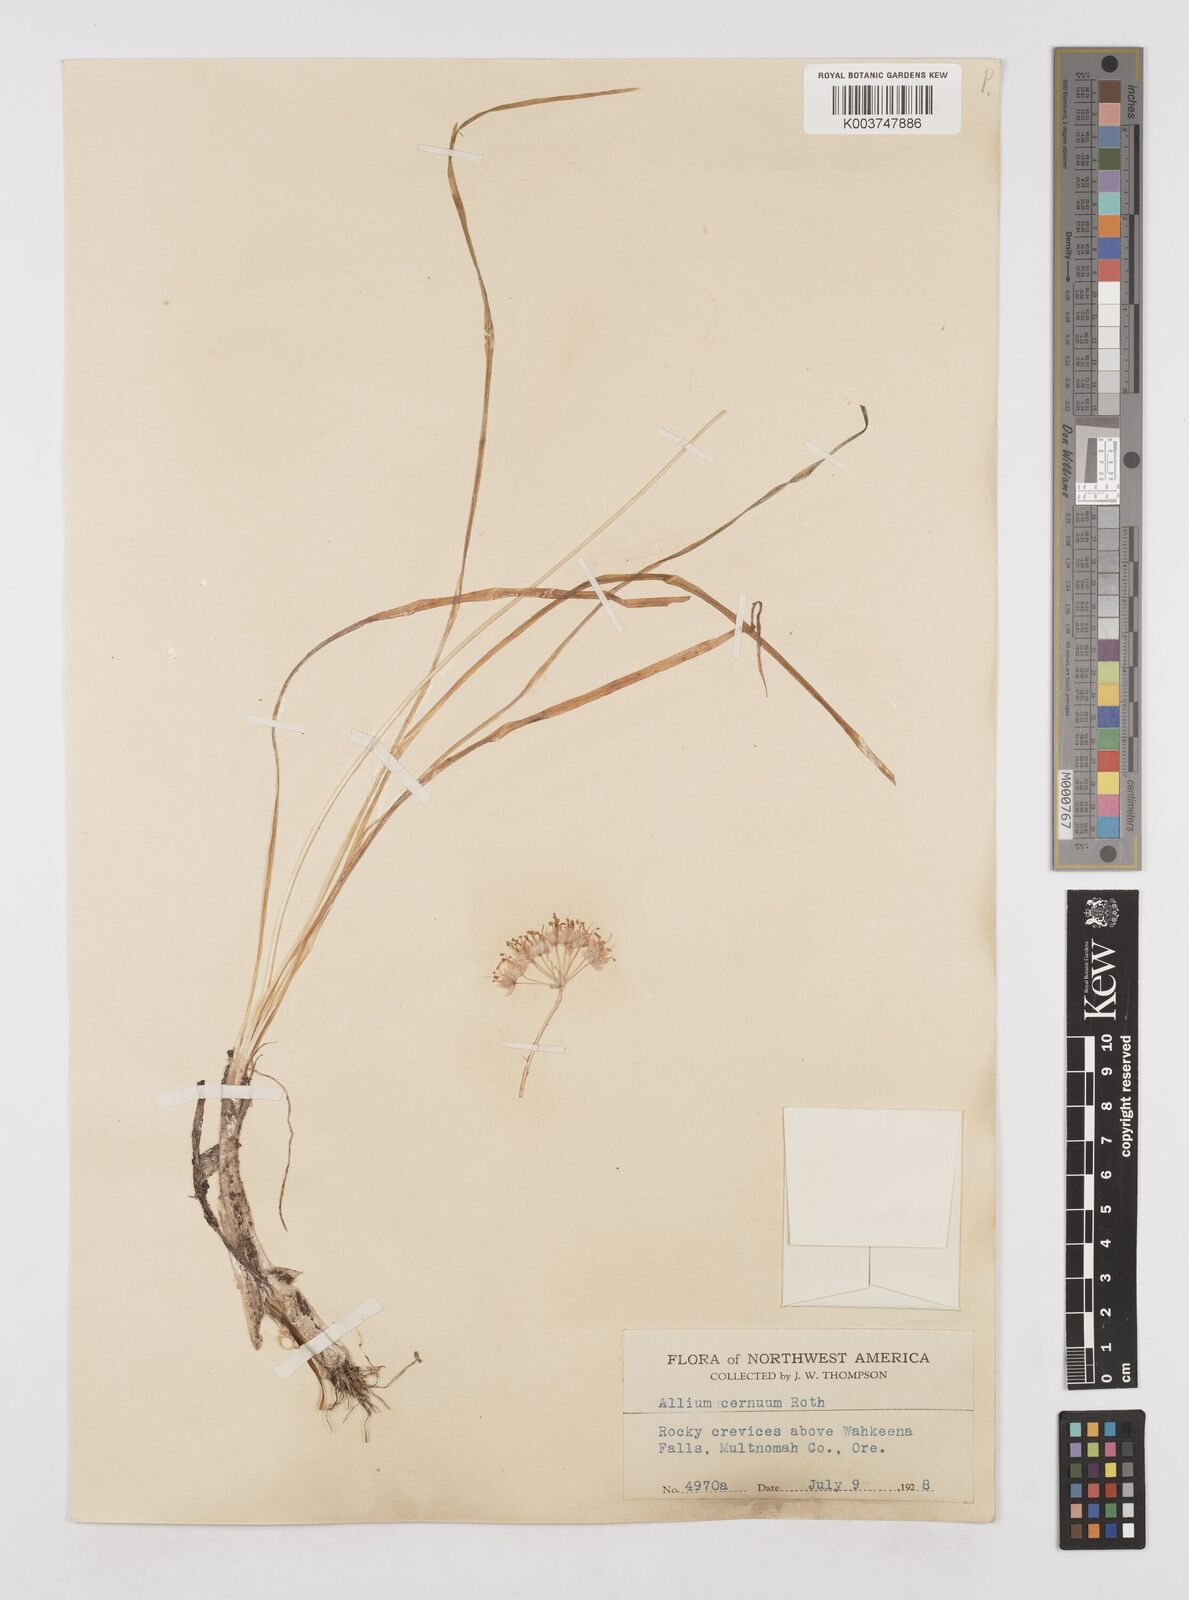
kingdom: Plantae
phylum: Tracheophyta
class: Liliopsida
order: Asparagales
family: Amaryllidaceae
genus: Allium
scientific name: Allium cernuum
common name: Nodding onion
